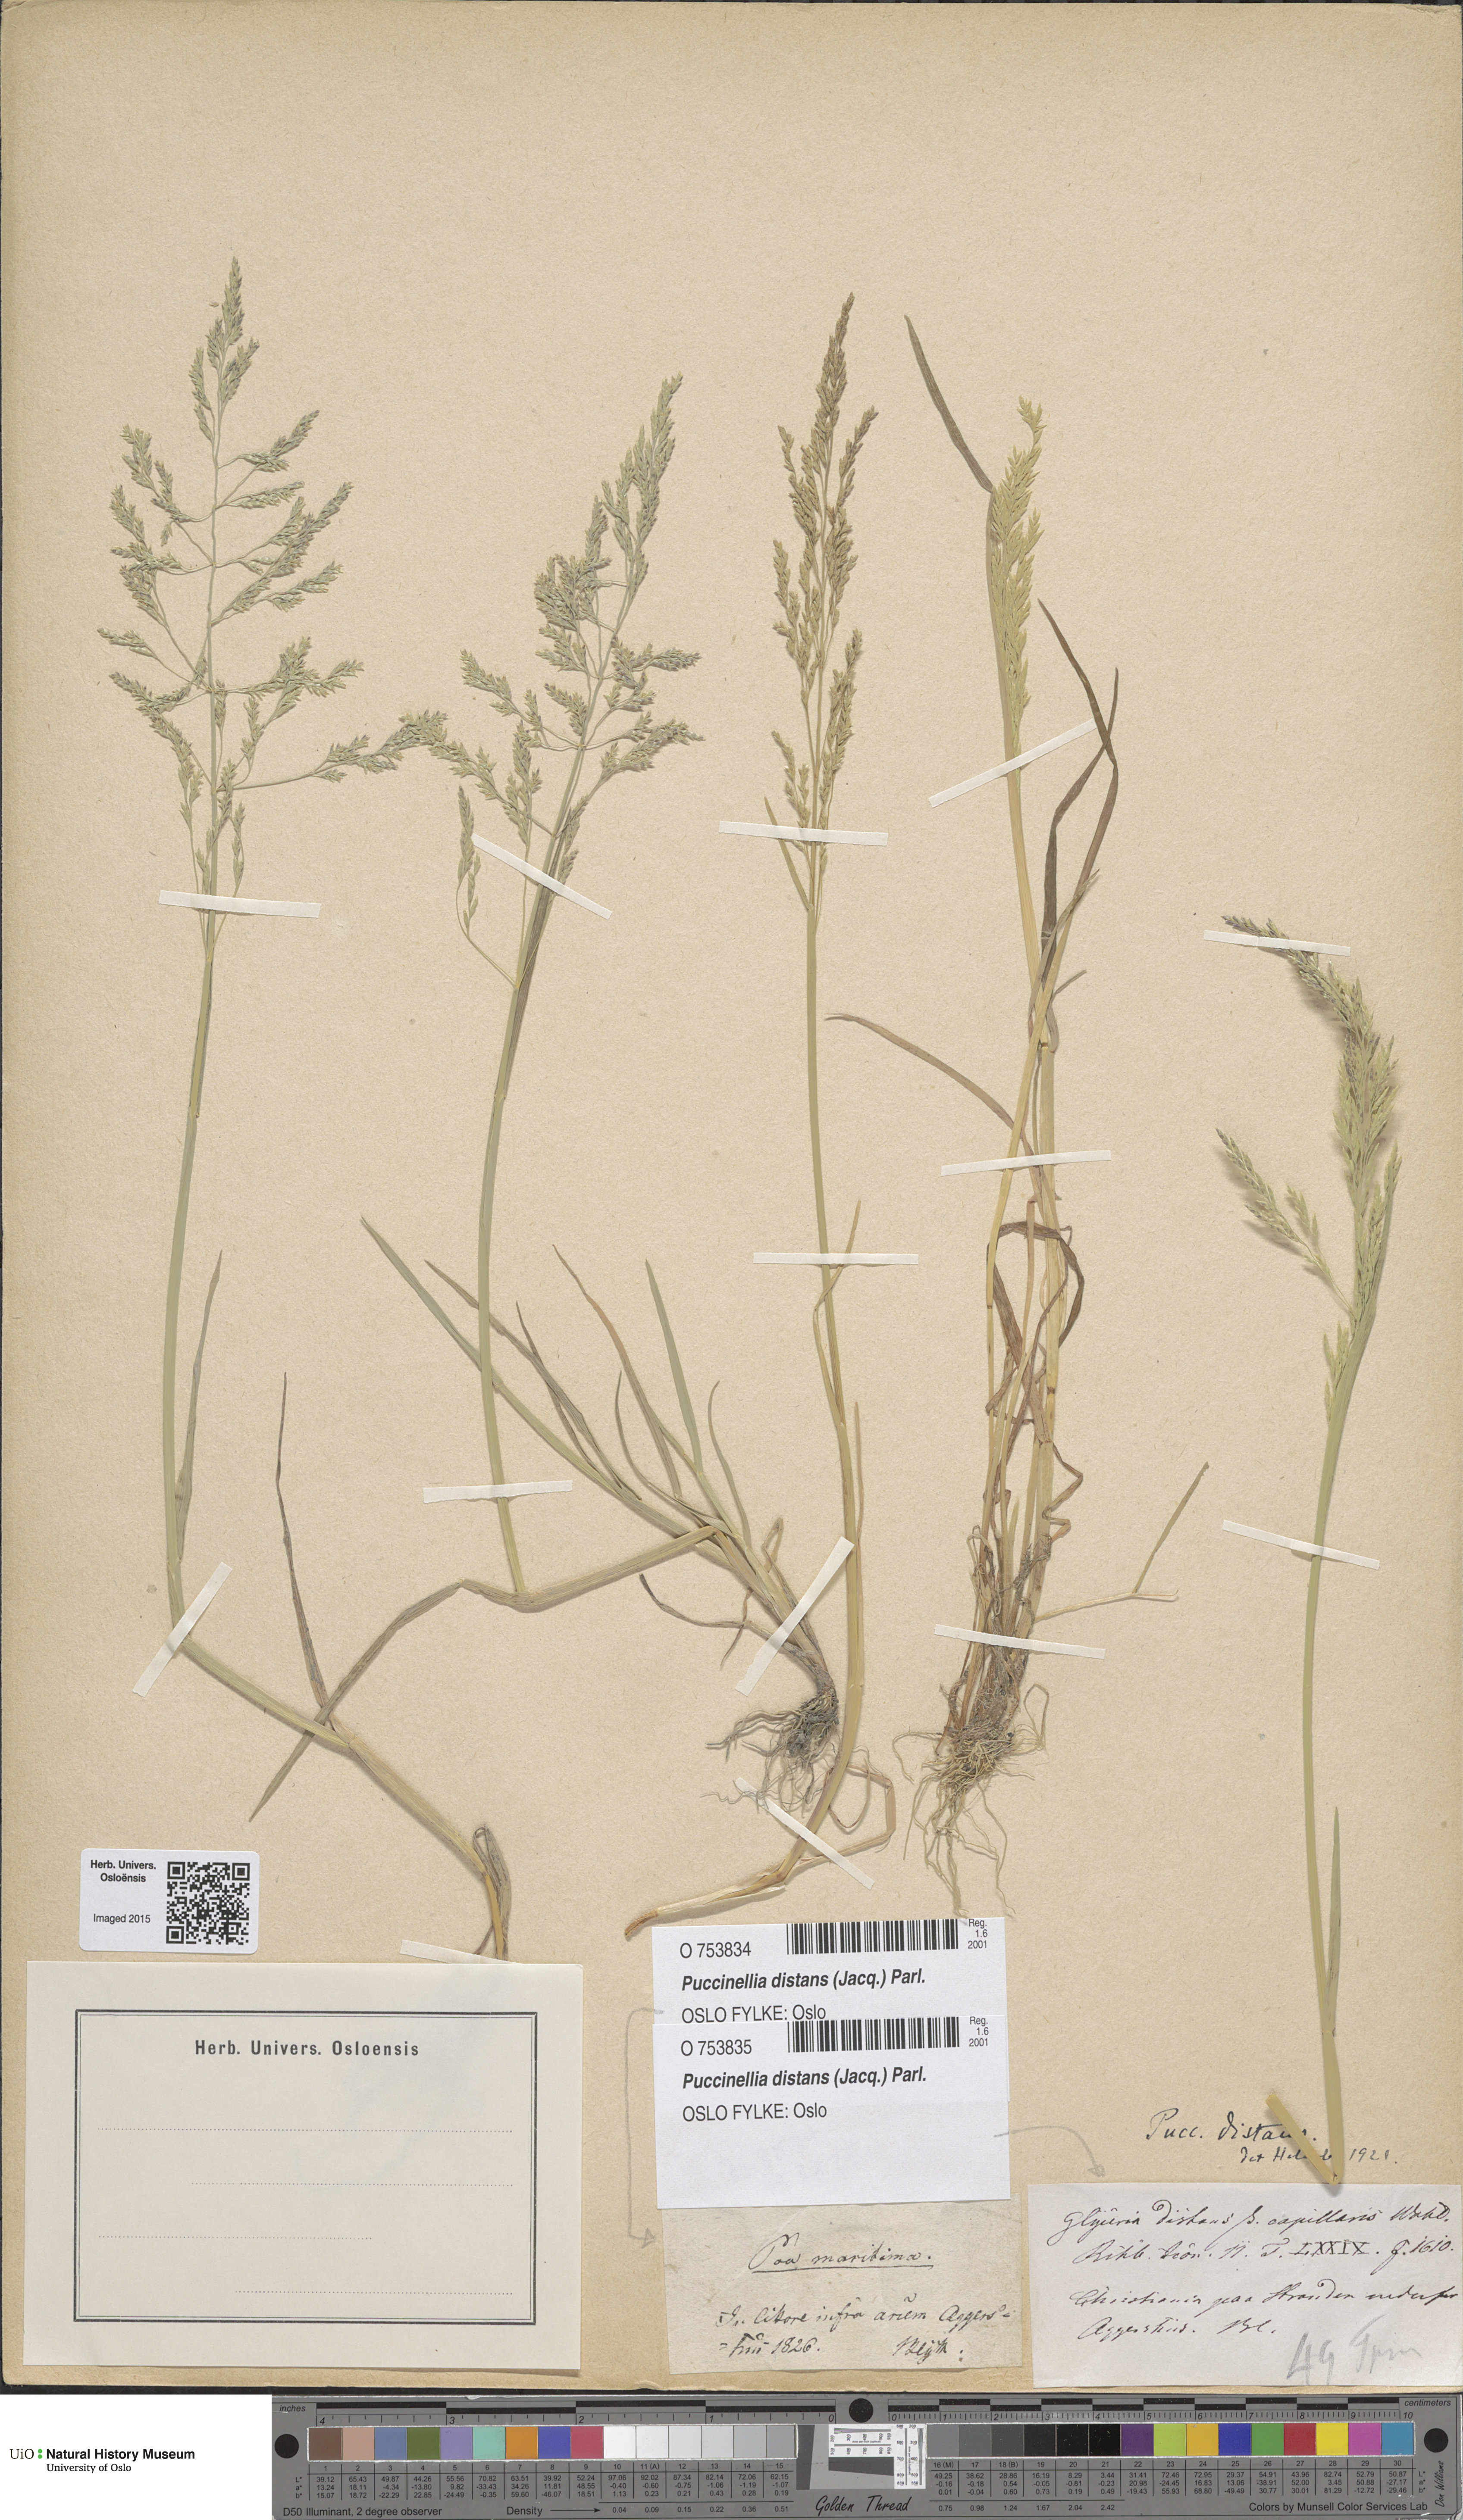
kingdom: Plantae
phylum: Tracheophyta
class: Liliopsida
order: Poales
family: Poaceae
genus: Puccinellia
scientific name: Puccinellia distans
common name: Weeping alkaligrass
